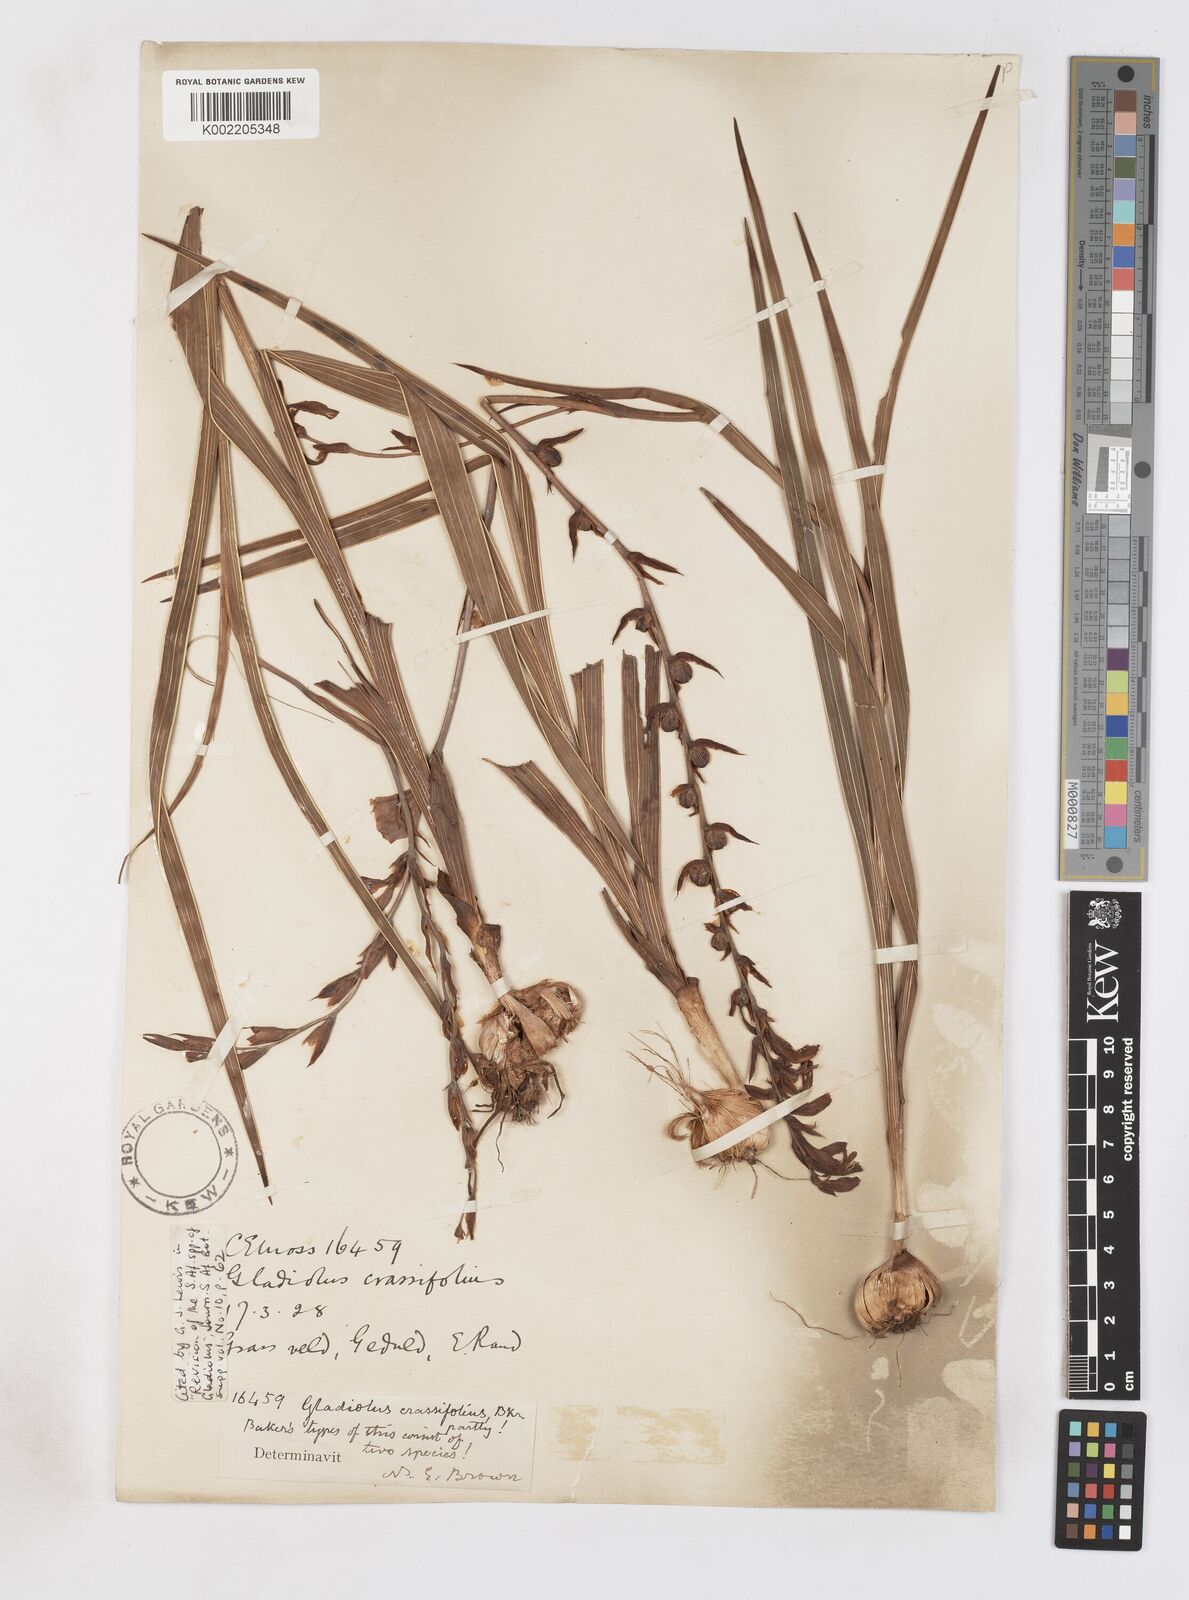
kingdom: Plantae
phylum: Tracheophyta
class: Liliopsida
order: Asparagales
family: Iridaceae
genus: Gladiolus
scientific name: Gladiolus crassifolius
